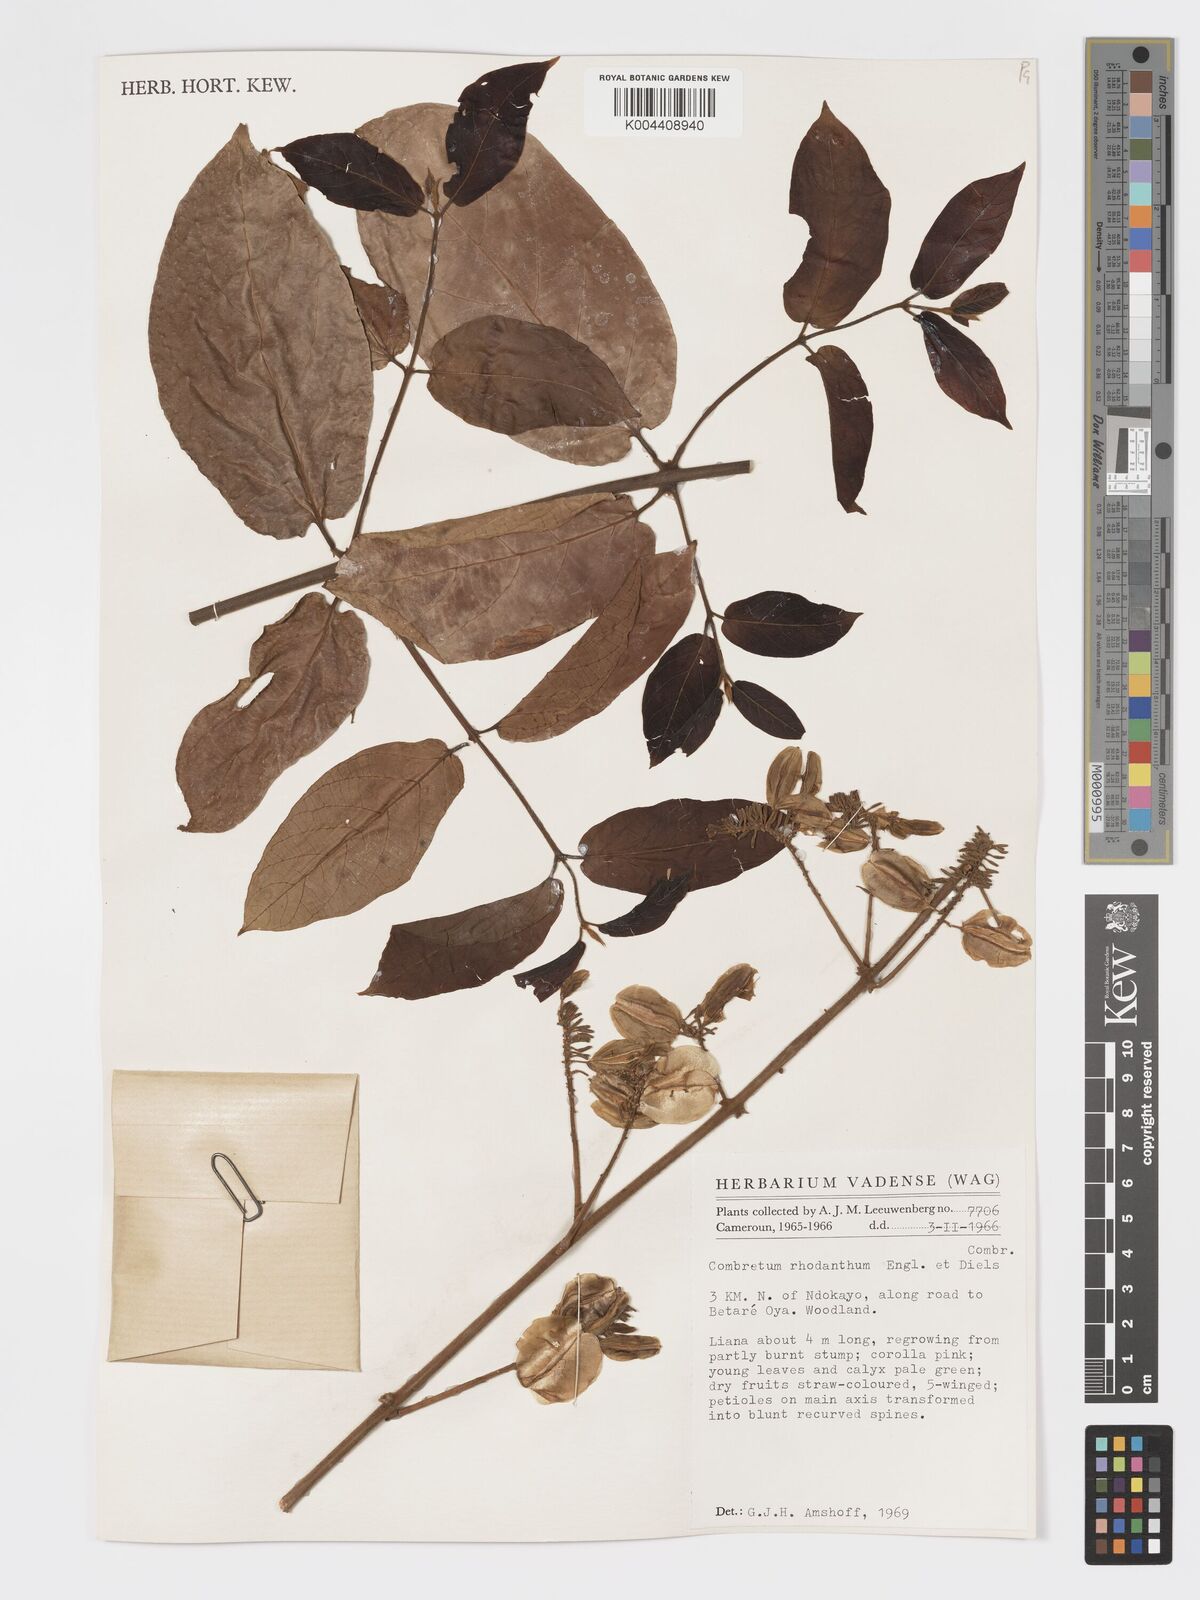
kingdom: Plantae
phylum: Tracheophyta
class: Magnoliopsida
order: Myrtales
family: Combretaceae
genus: Combretum
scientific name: Combretum comosum
